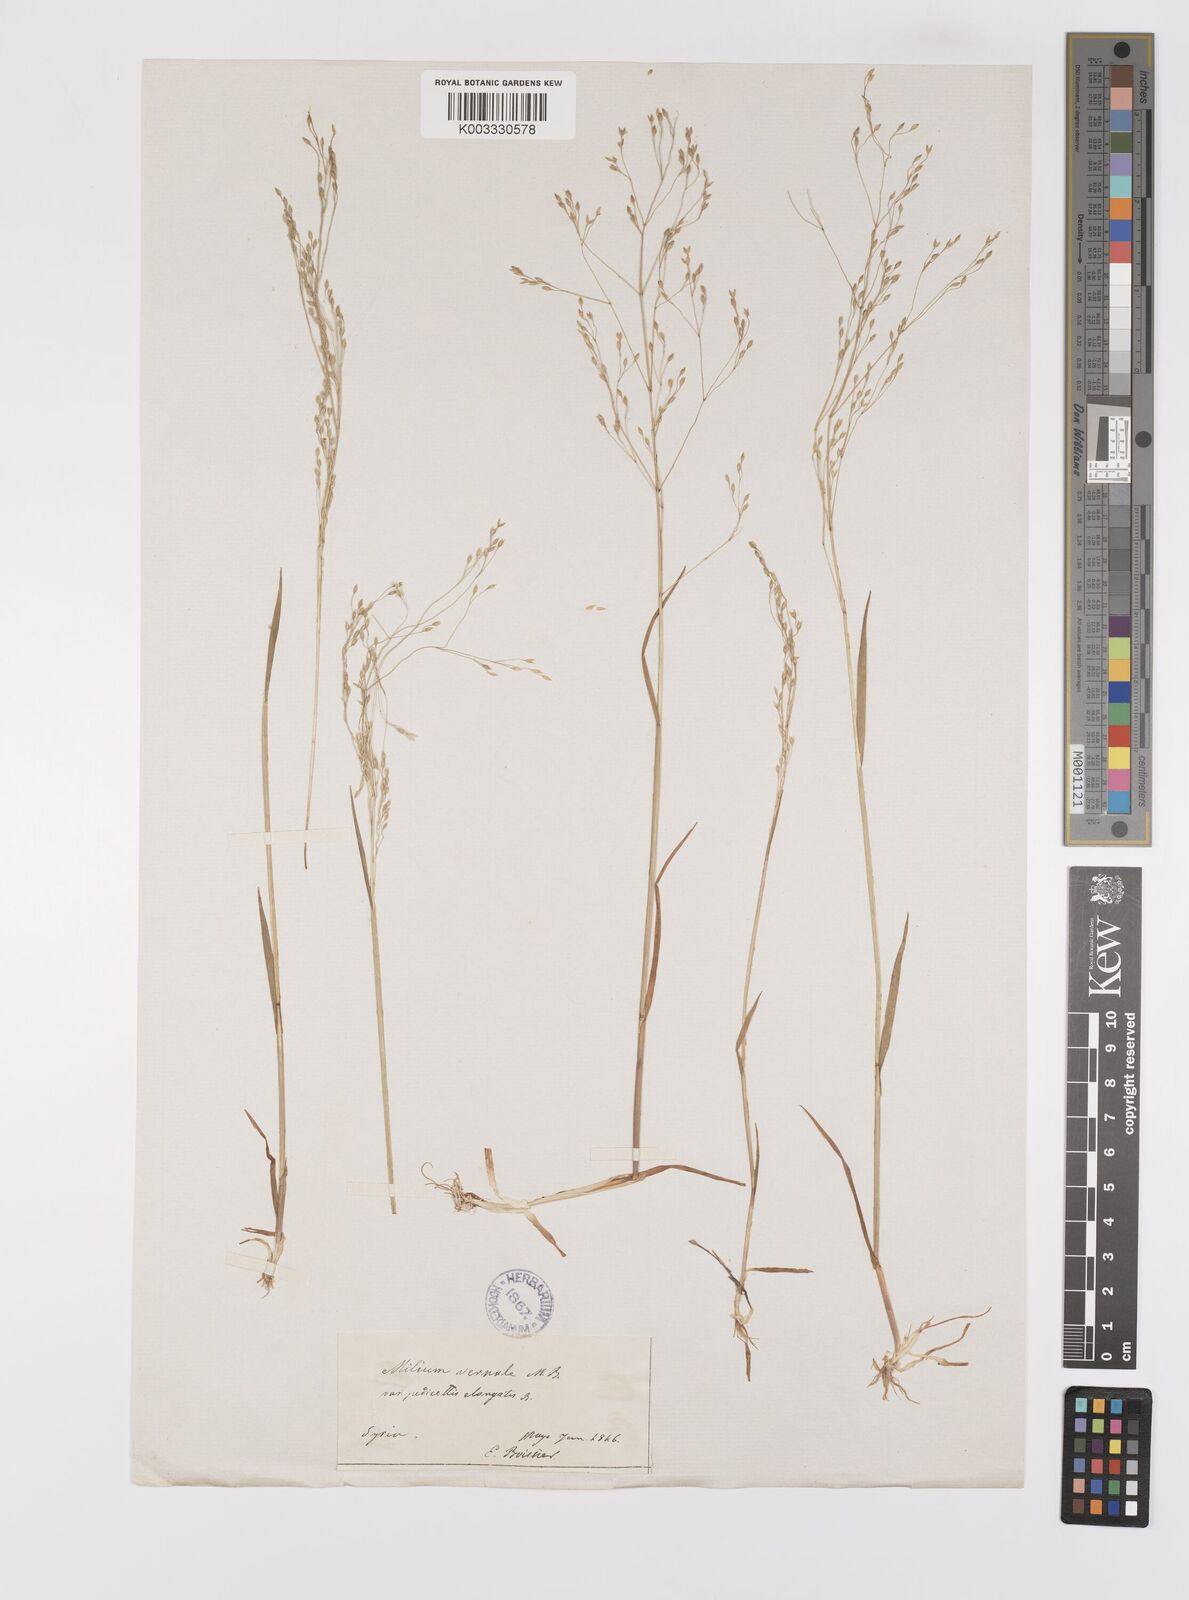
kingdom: Plantae
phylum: Tracheophyta
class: Liliopsida
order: Poales
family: Poaceae
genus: Milium
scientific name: Milium pedicellare
